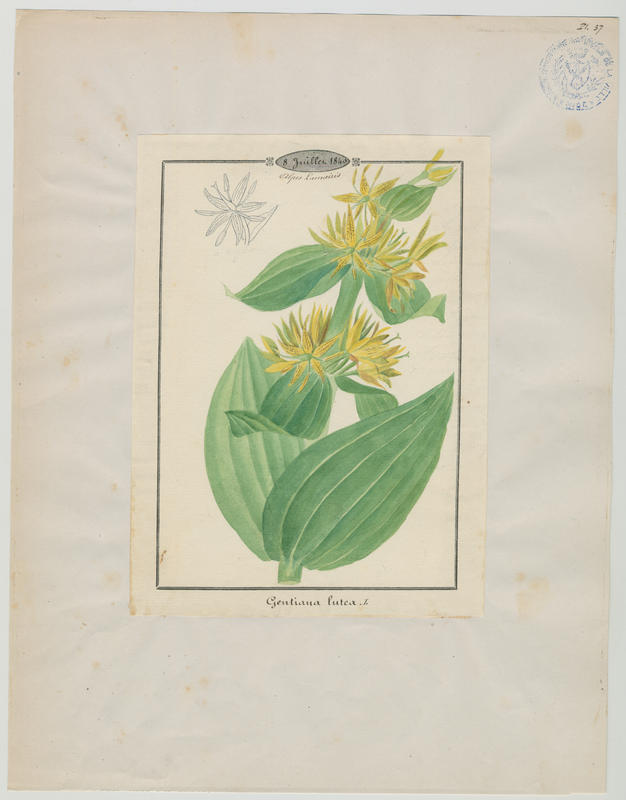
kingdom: Plantae
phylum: Tracheophyta
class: Magnoliopsida
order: Gentianales
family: Gentianaceae
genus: Gentiana
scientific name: Gentiana lutea
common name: Great yellow gentian
